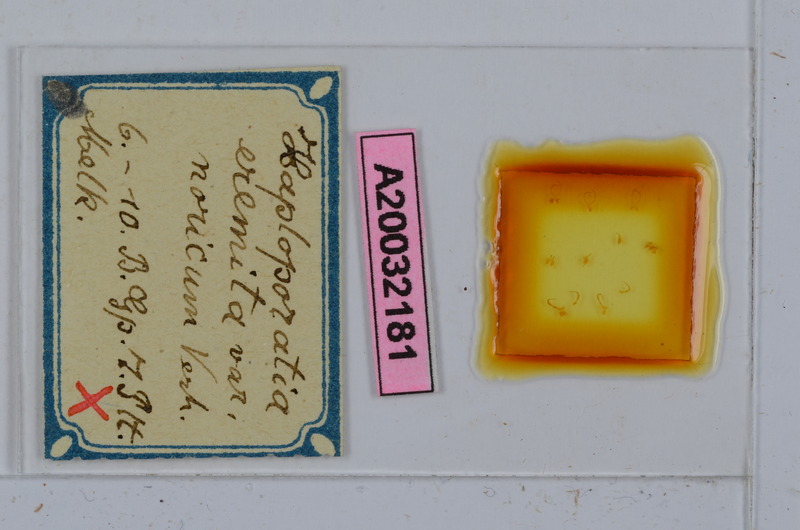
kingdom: Animalia
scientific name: Animalia
